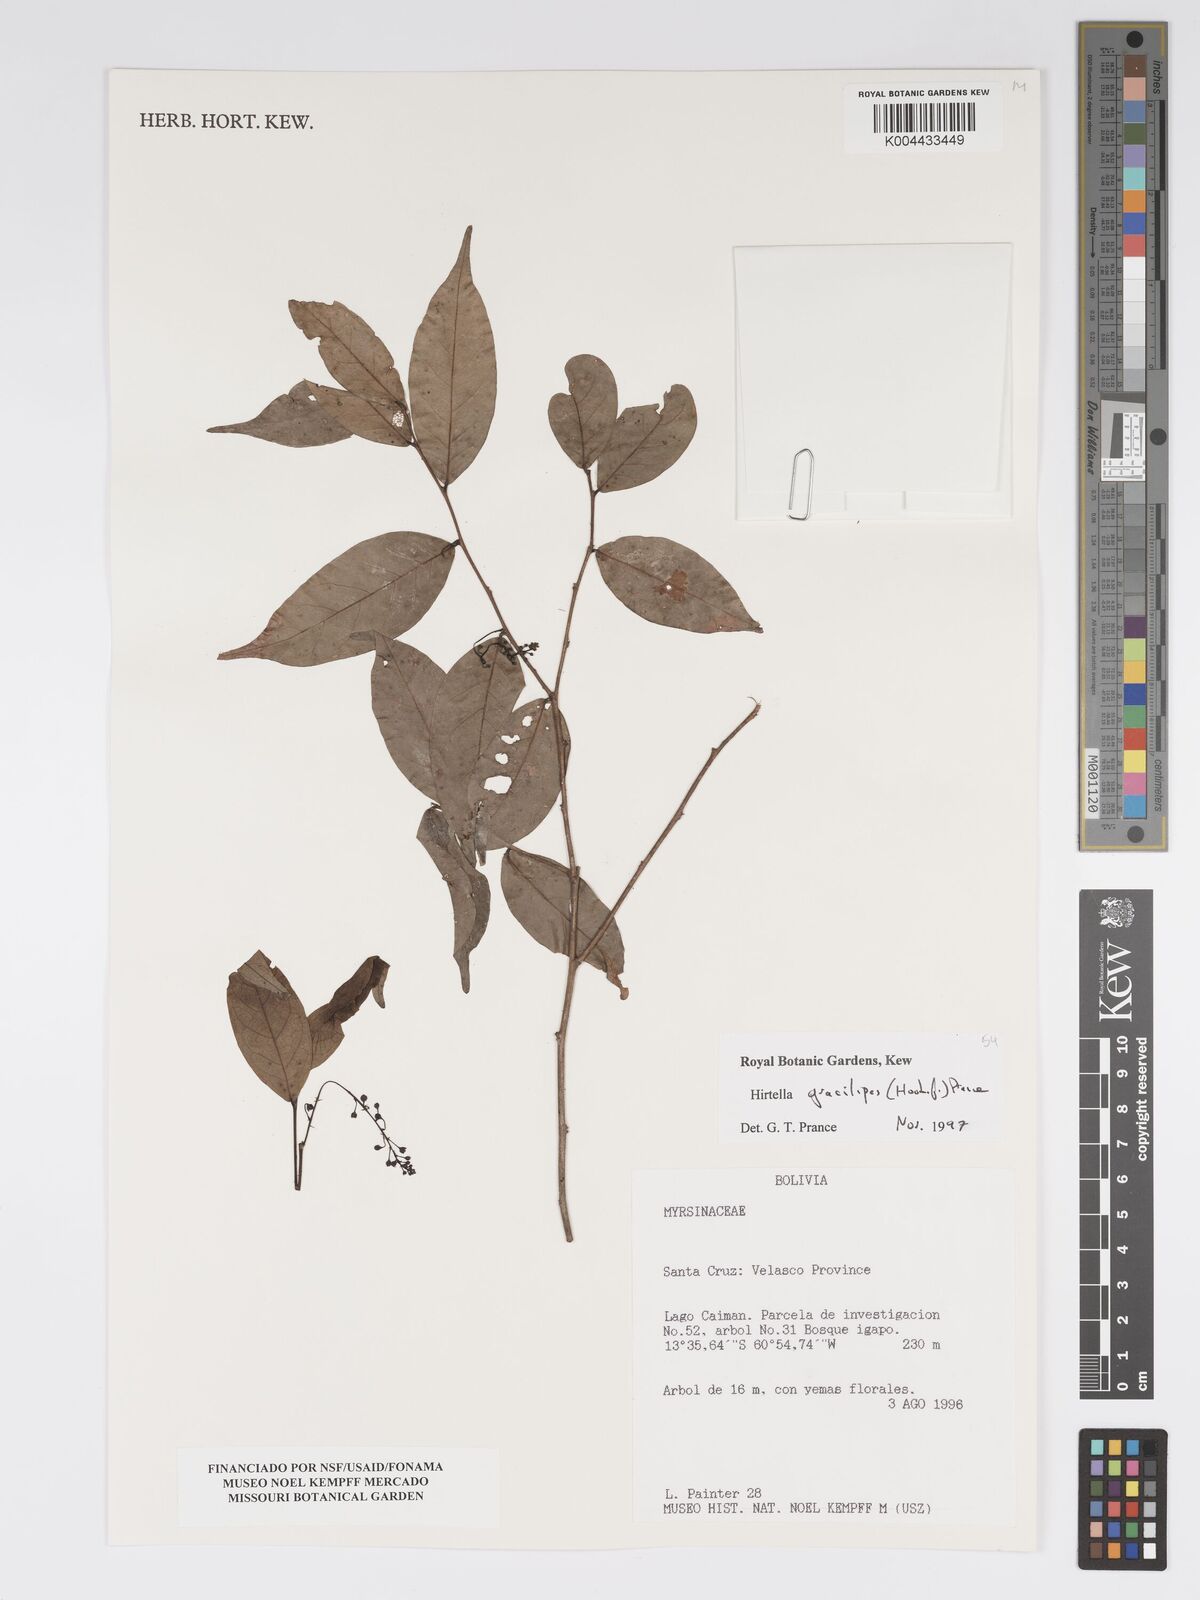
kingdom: Plantae
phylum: Tracheophyta
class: Magnoliopsida
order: Malpighiales
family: Chrysobalanaceae
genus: Hirtella
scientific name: Hirtella gracilipes
